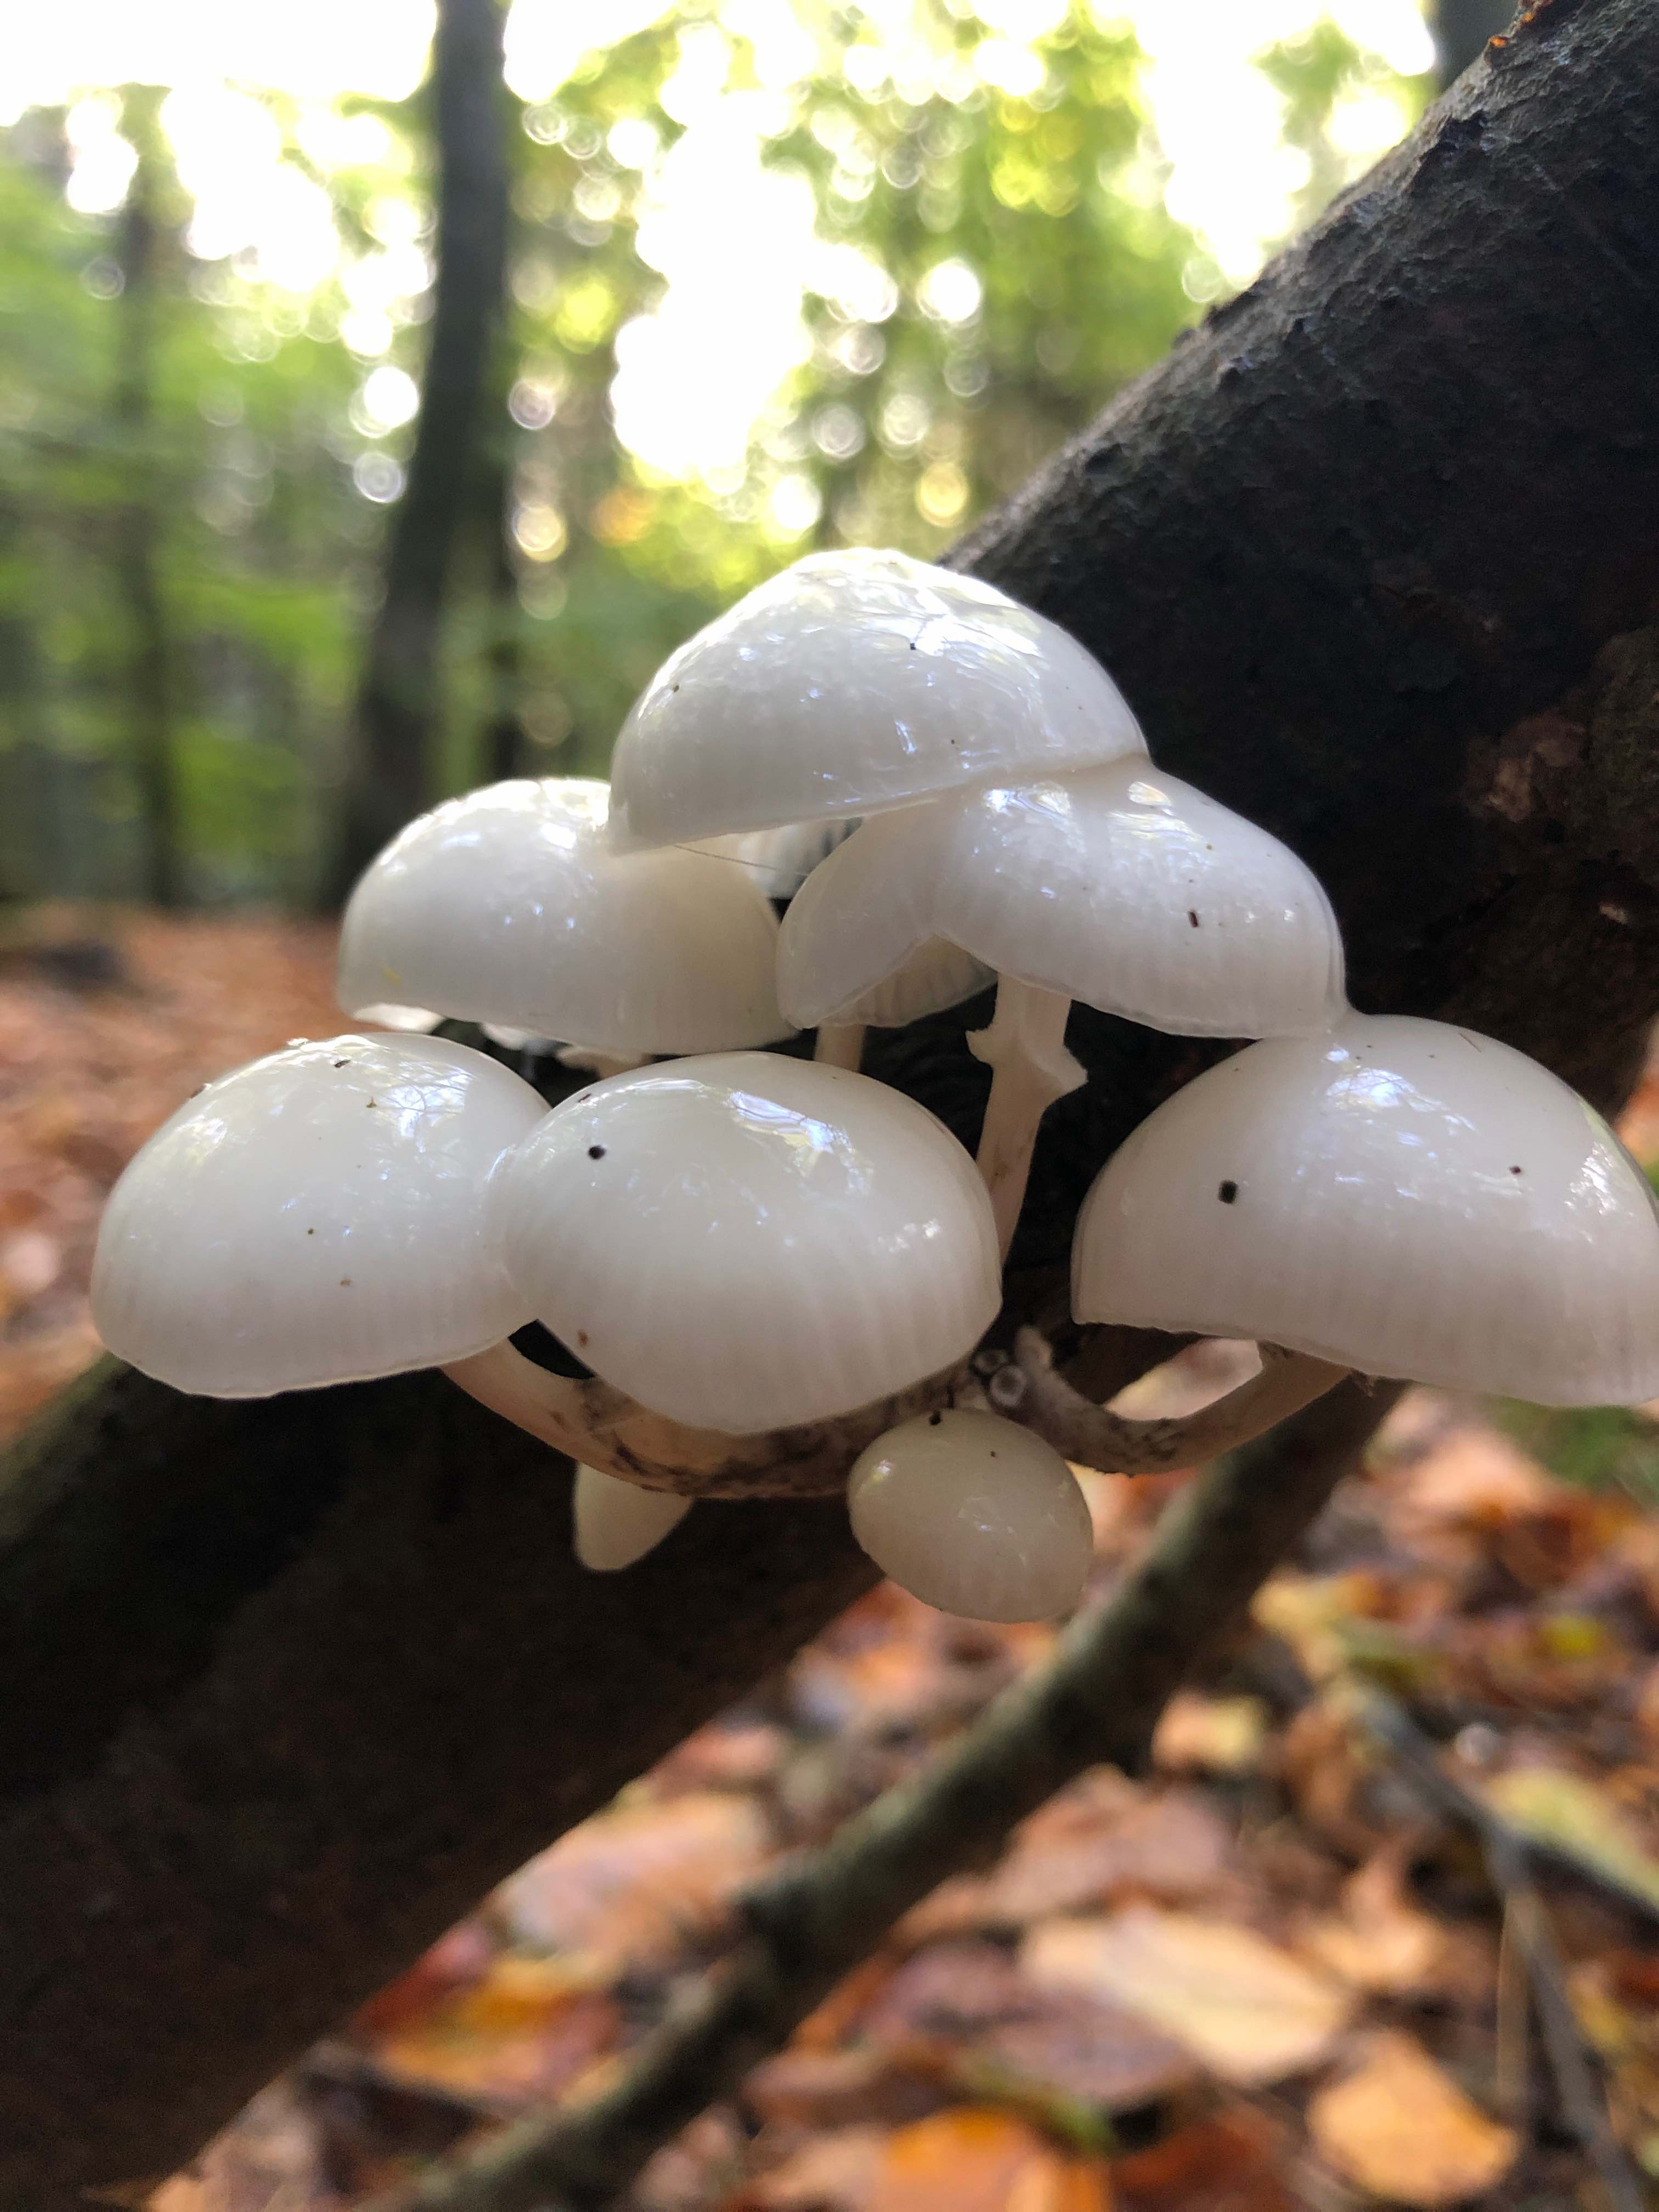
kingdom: Fungi
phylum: Basidiomycota
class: Agaricomycetes
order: Agaricales
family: Physalacriaceae
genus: Mucidula
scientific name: Mucidula mucida
